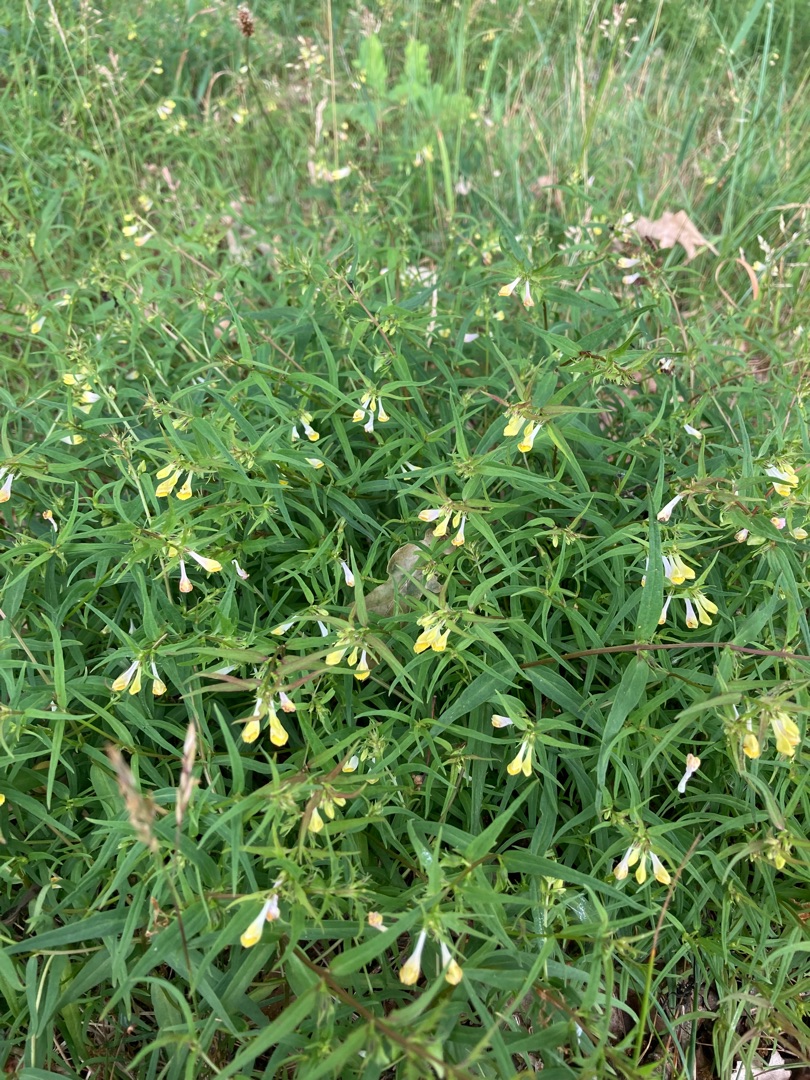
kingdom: Plantae
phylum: Tracheophyta
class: Magnoliopsida
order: Lamiales
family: Orobanchaceae
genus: Melampyrum
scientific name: Melampyrum pratense
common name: Almindelig kohvede
